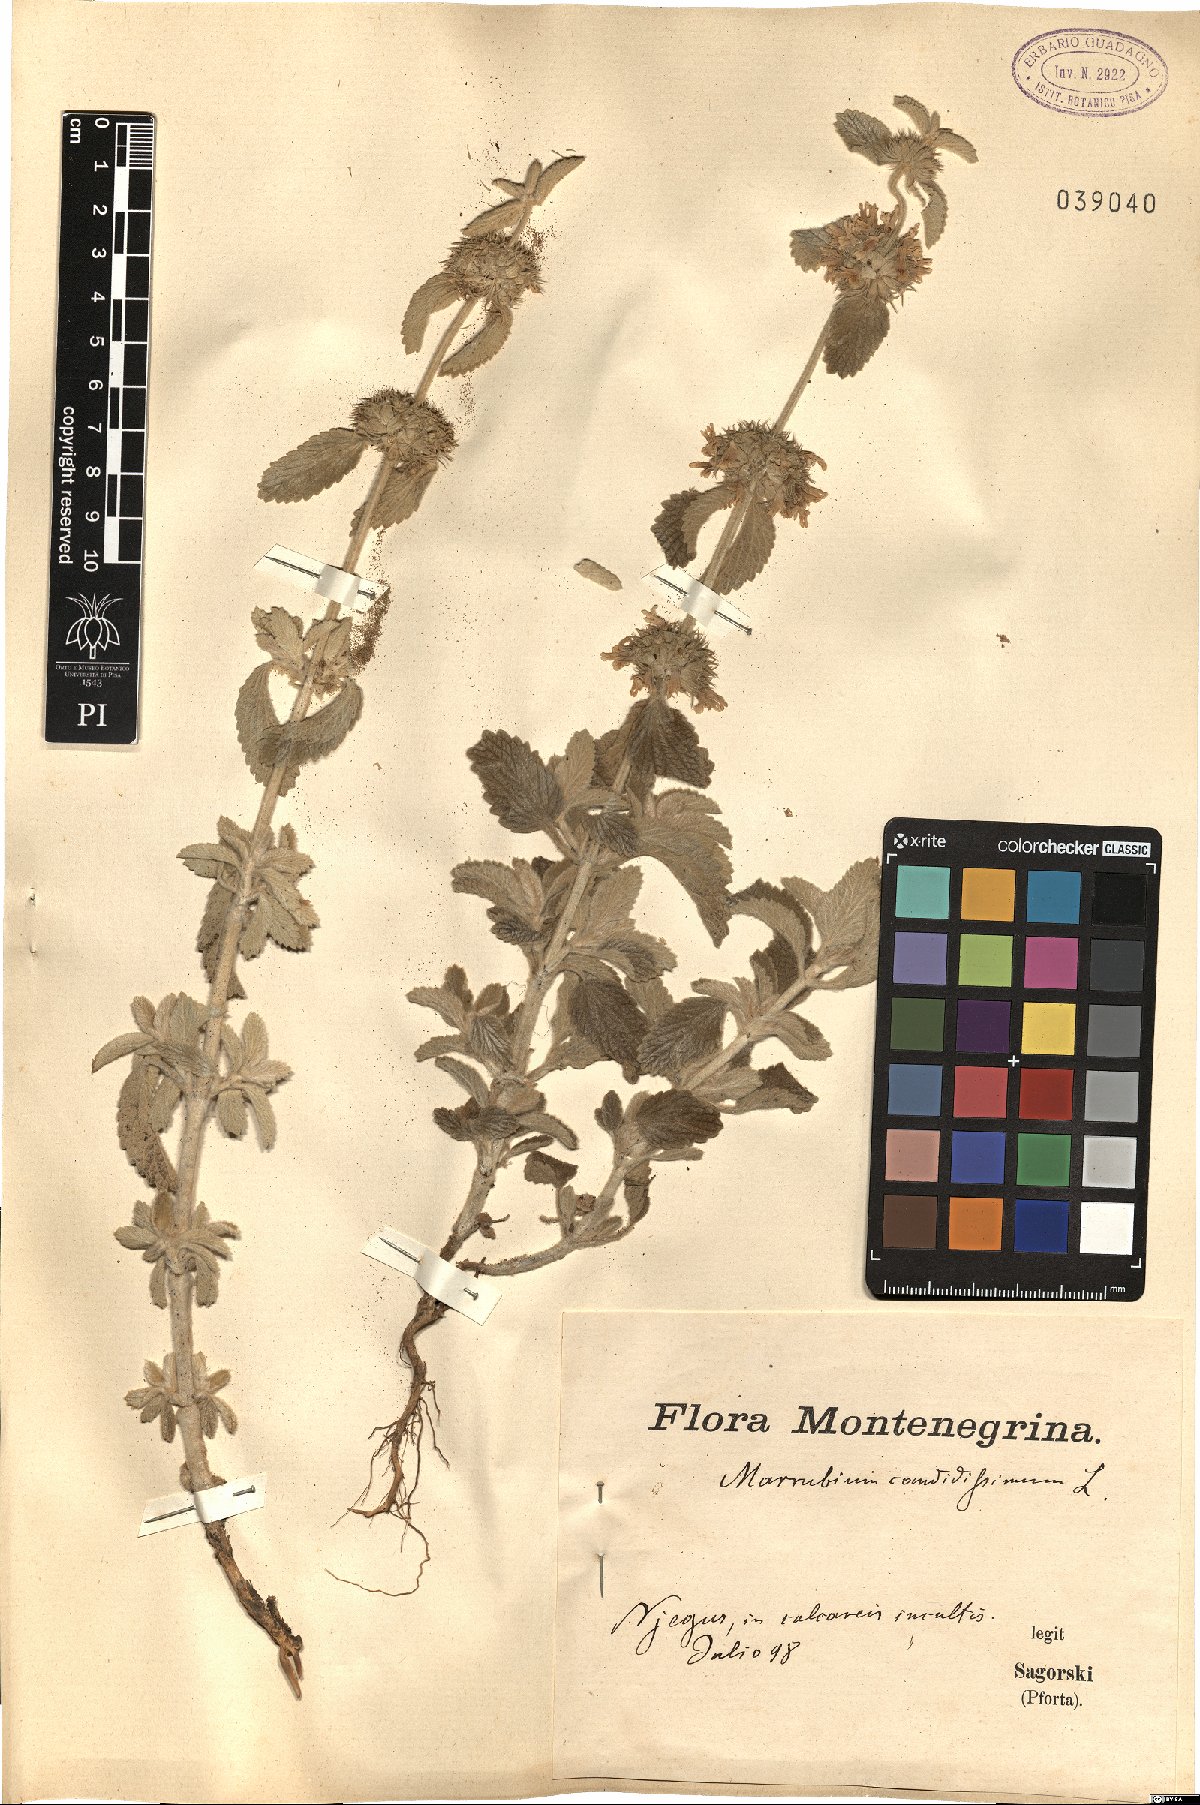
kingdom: Plantae
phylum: Tracheophyta
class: Magnoliopsida
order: Lamiales
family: Lamiaceae
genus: Marrubium
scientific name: Marrubium peregrinum
